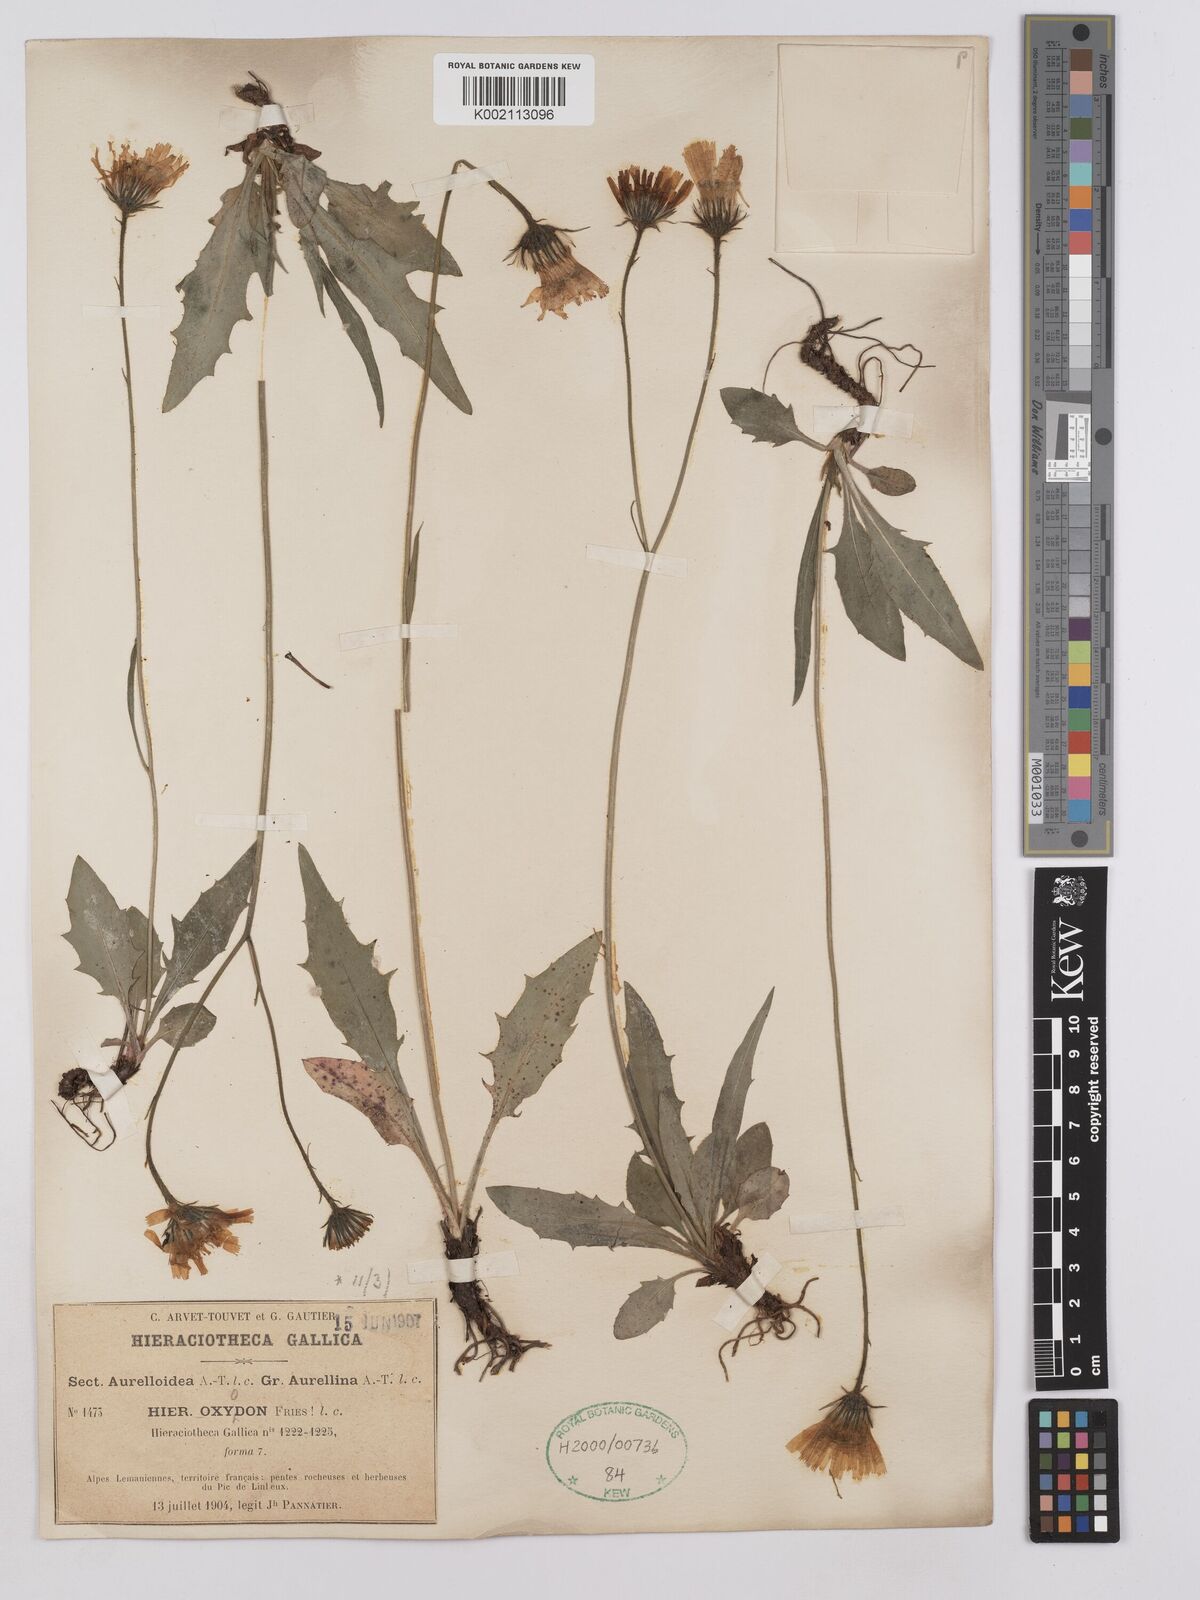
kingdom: Plantae
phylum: Tracheophyta
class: Magnoliopsida
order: Asterales
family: Asteraceae
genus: Hieracium
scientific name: Hieracium glaucum
